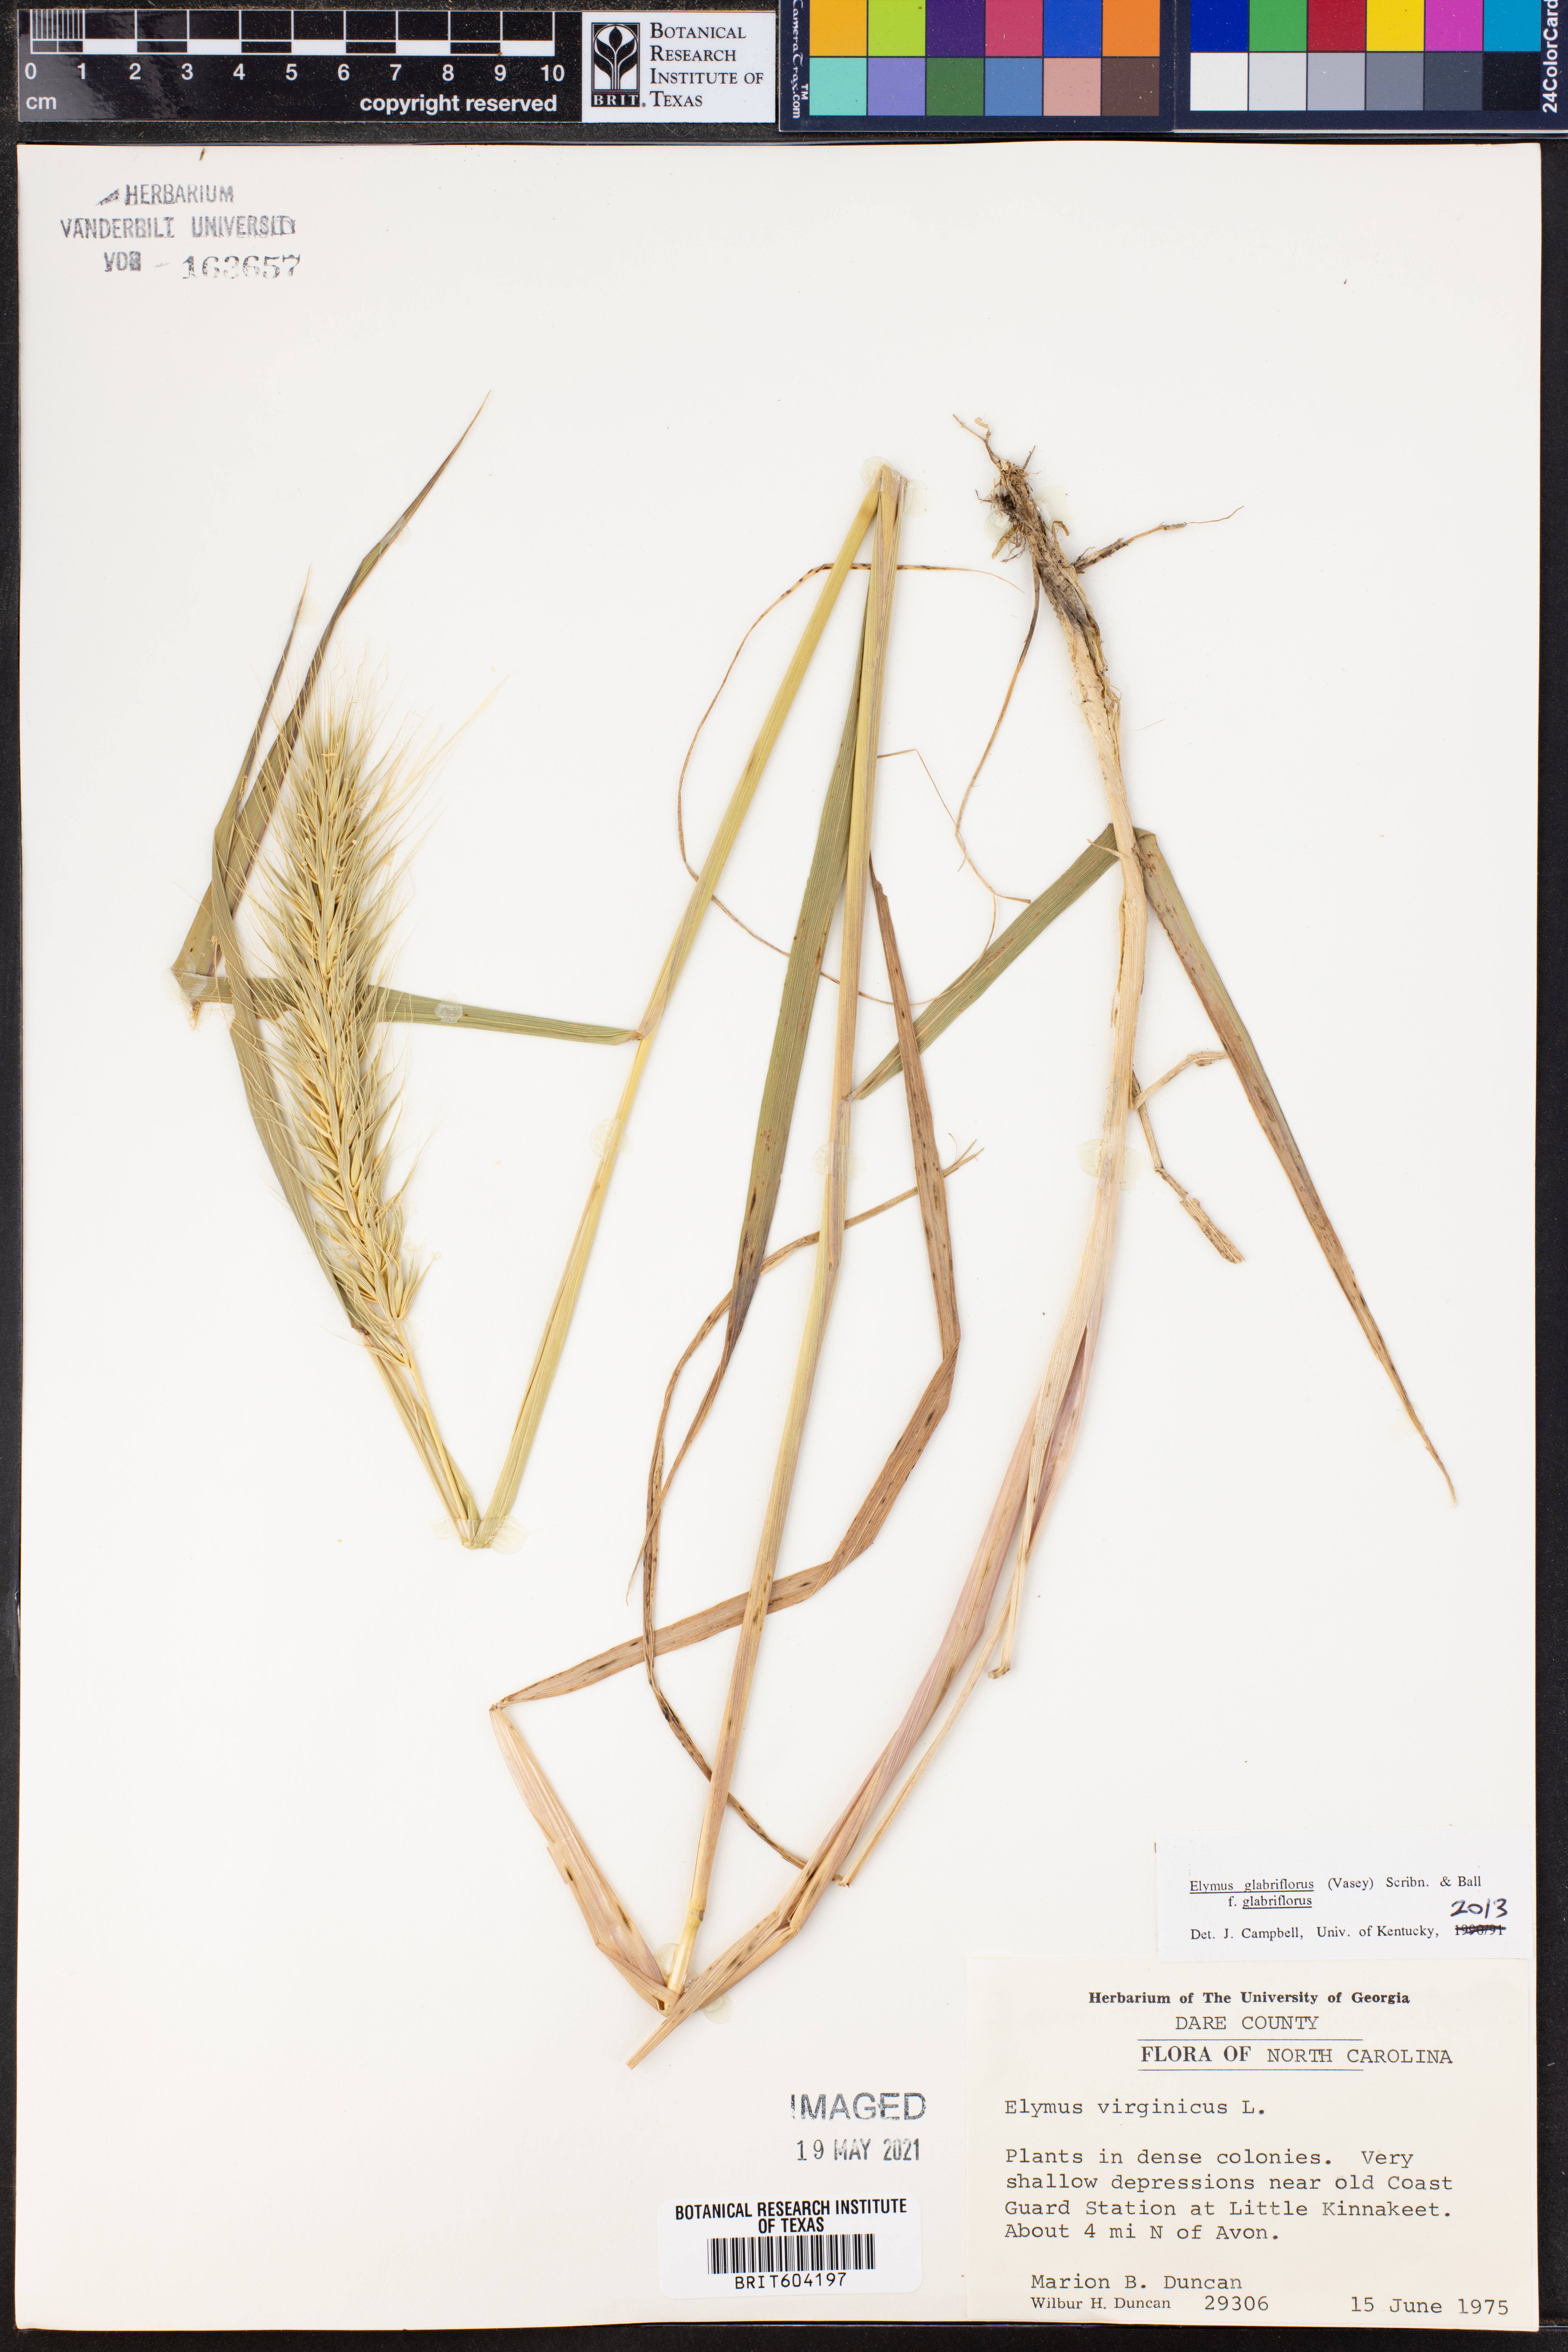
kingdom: Plantae
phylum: Tracheophyta
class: Liliopsida
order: Poales
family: Poaceae
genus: Elymus
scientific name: Elymus virginicus
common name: Common eastern wildrye
